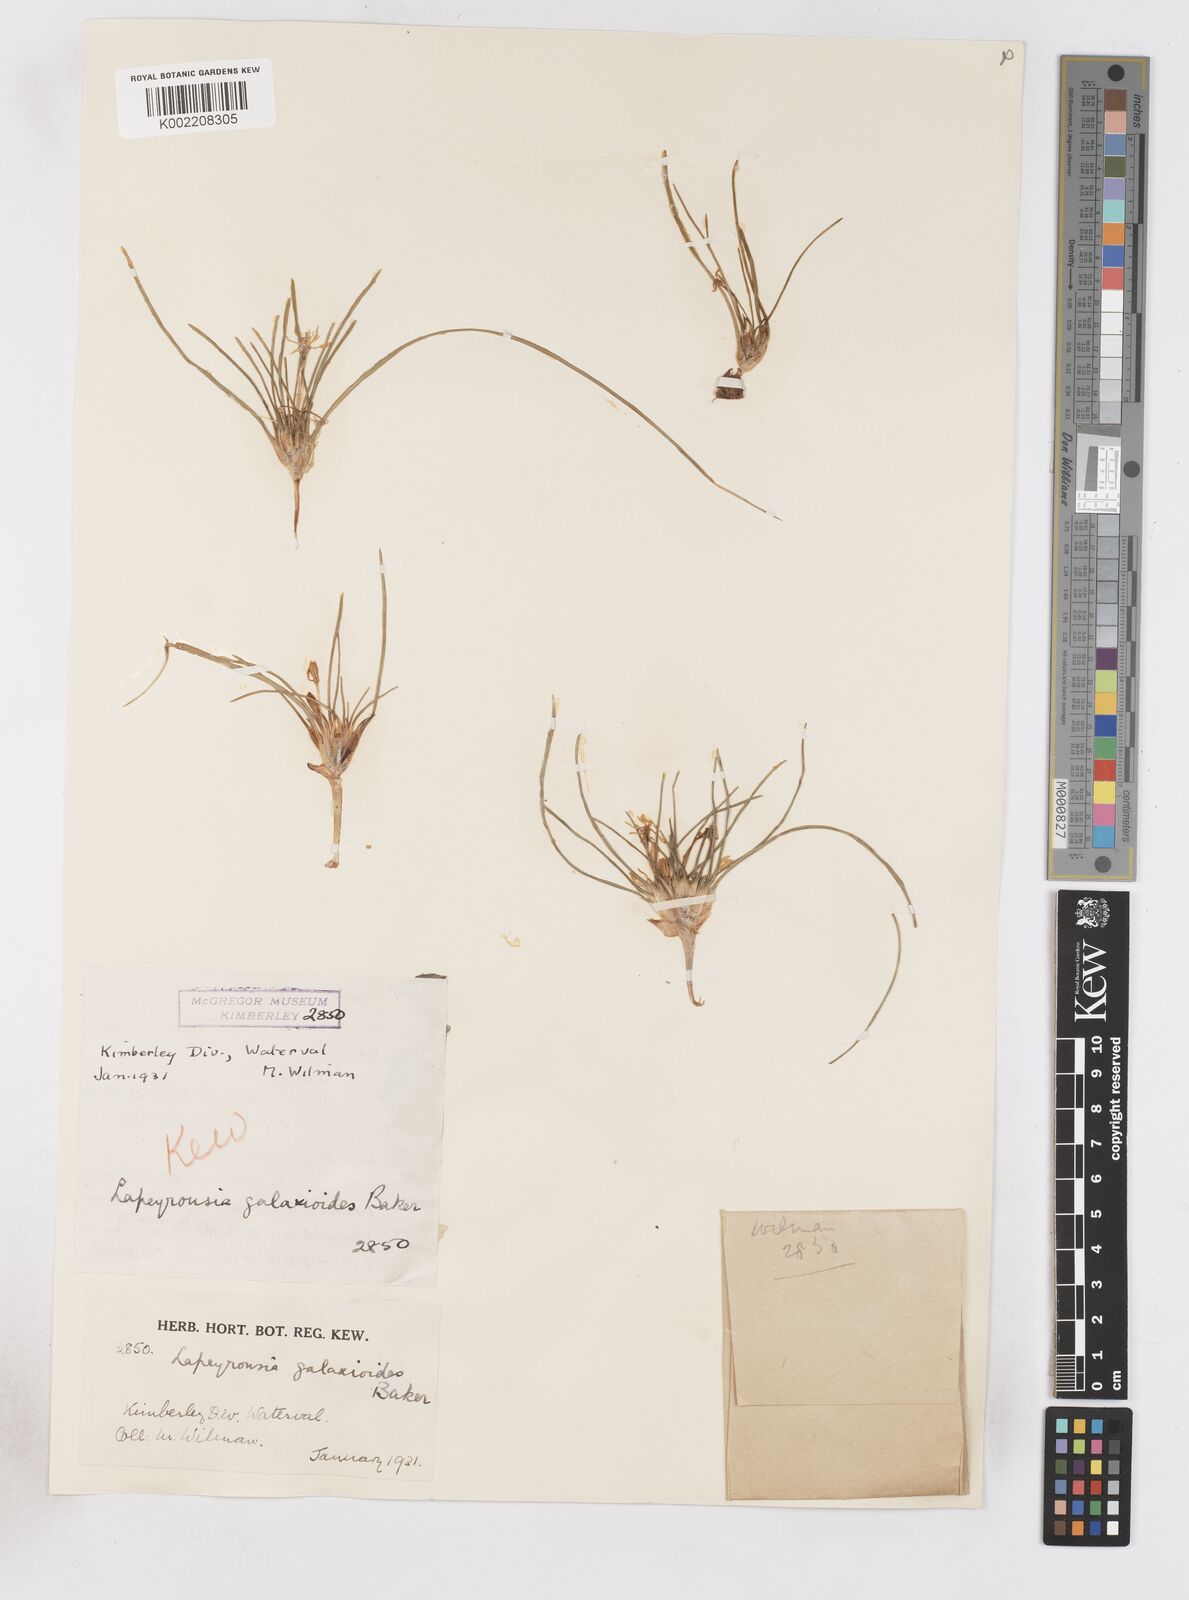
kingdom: Plantae
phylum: Tracheophyta
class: Liliopsida
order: Asparagales
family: Iridaceae
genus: Lapeirousia
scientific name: Lapeirousia plicata
